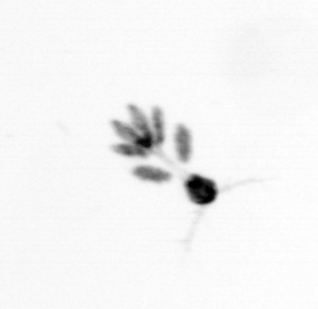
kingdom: Animalia
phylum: Arthropoda
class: Copepoda
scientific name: Copepoda
